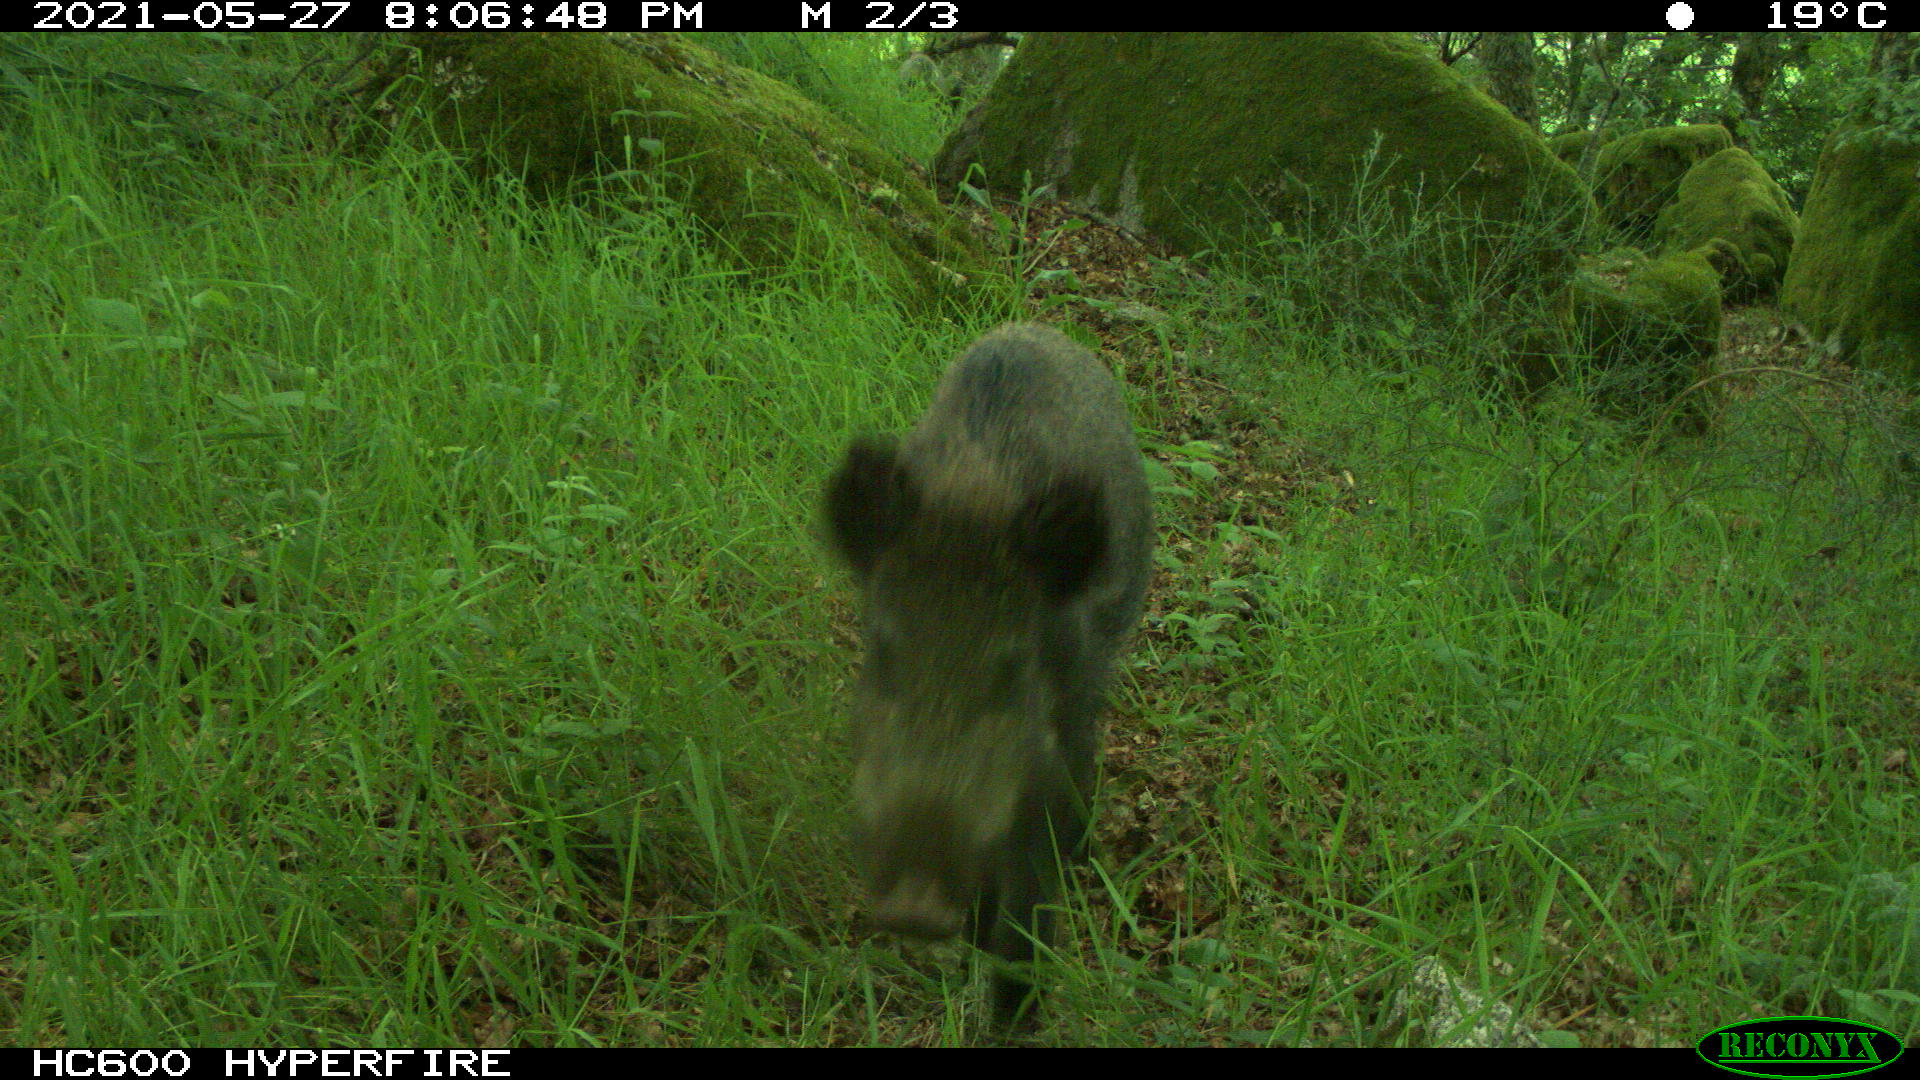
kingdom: Animalia
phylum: Chordata
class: Mammalia
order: Artiodactyla
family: Suidae
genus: Sus
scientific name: Sus scrofa
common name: Wild boar
